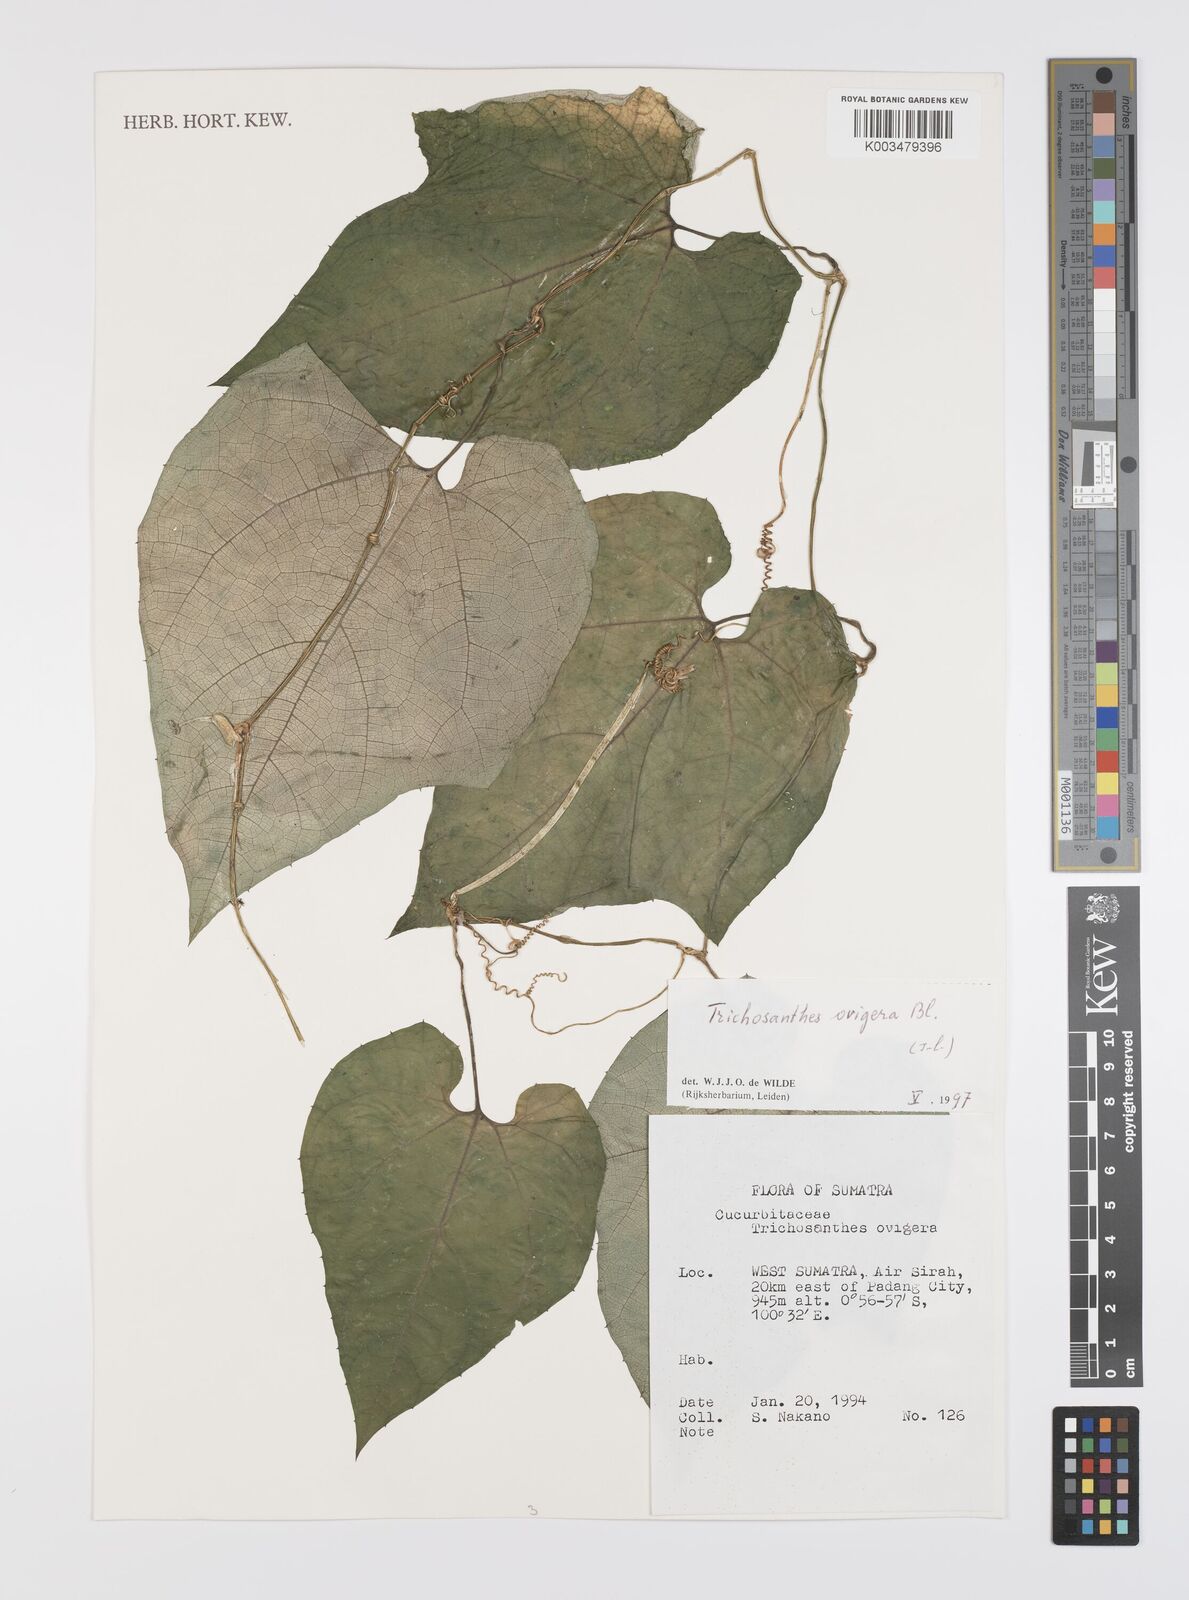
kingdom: Plantae
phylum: Tracheophyta
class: Magnoliopsida
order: Cucurbitales
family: Cucurbitaceae
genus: Trichosanthes
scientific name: Trichosanthes ovigera
